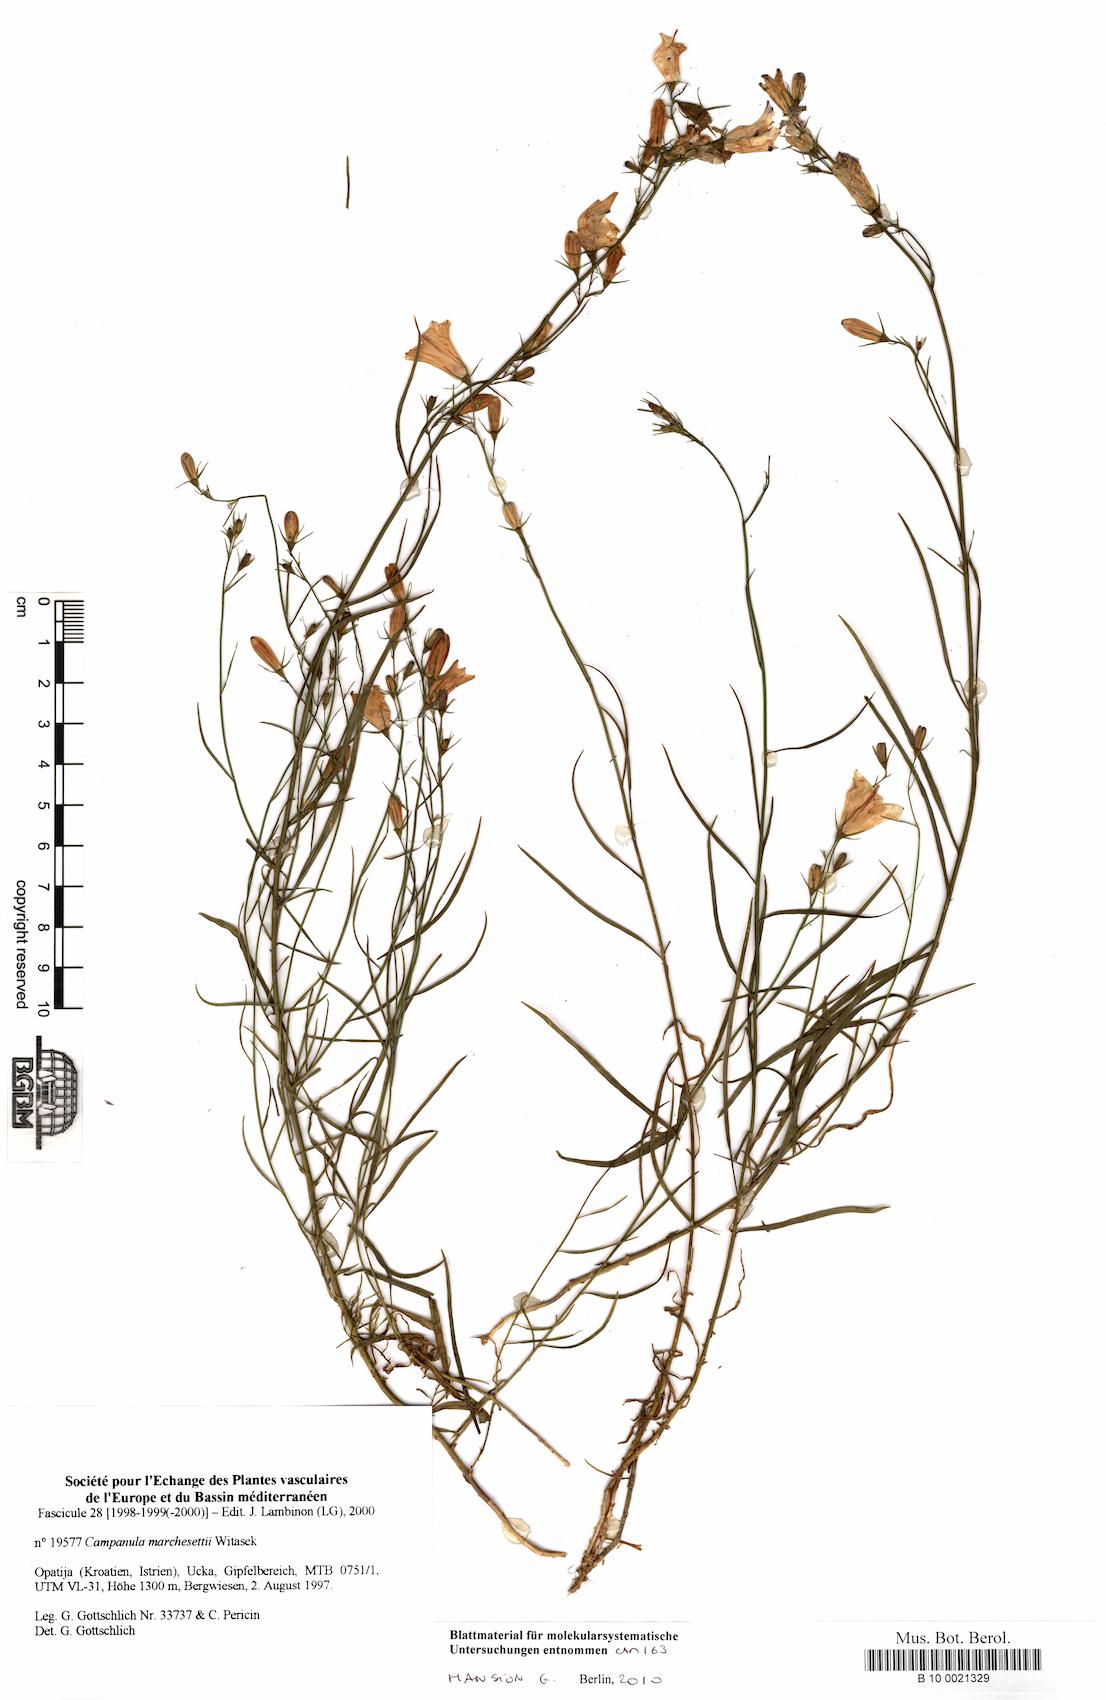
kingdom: Plantae
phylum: Tracheophyta
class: Magnoliopsida
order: Asterales
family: Campanulaceae
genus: Campanula
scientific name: Campanula marchesettii
